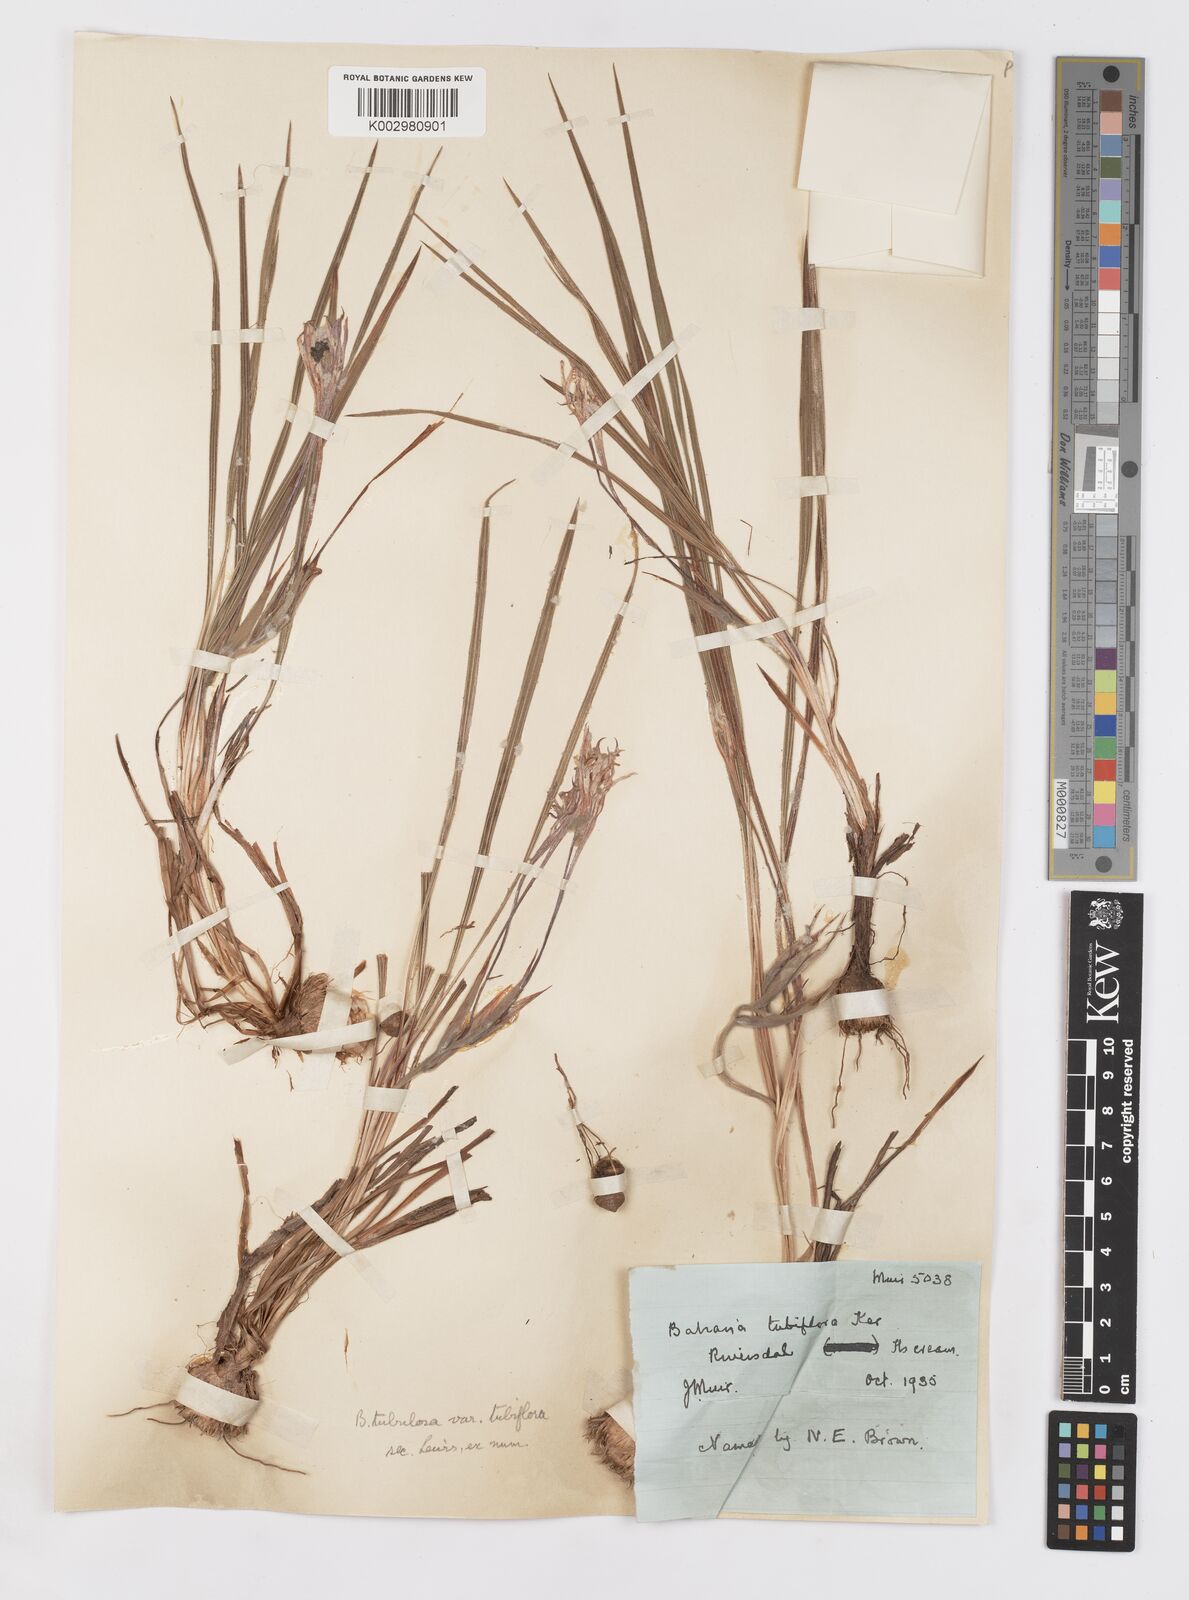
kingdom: Plantae
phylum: Tracheophyta
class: Liliopsida
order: Asparagales
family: Iridaceae
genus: Babiana
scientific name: Babiana tubiflora
